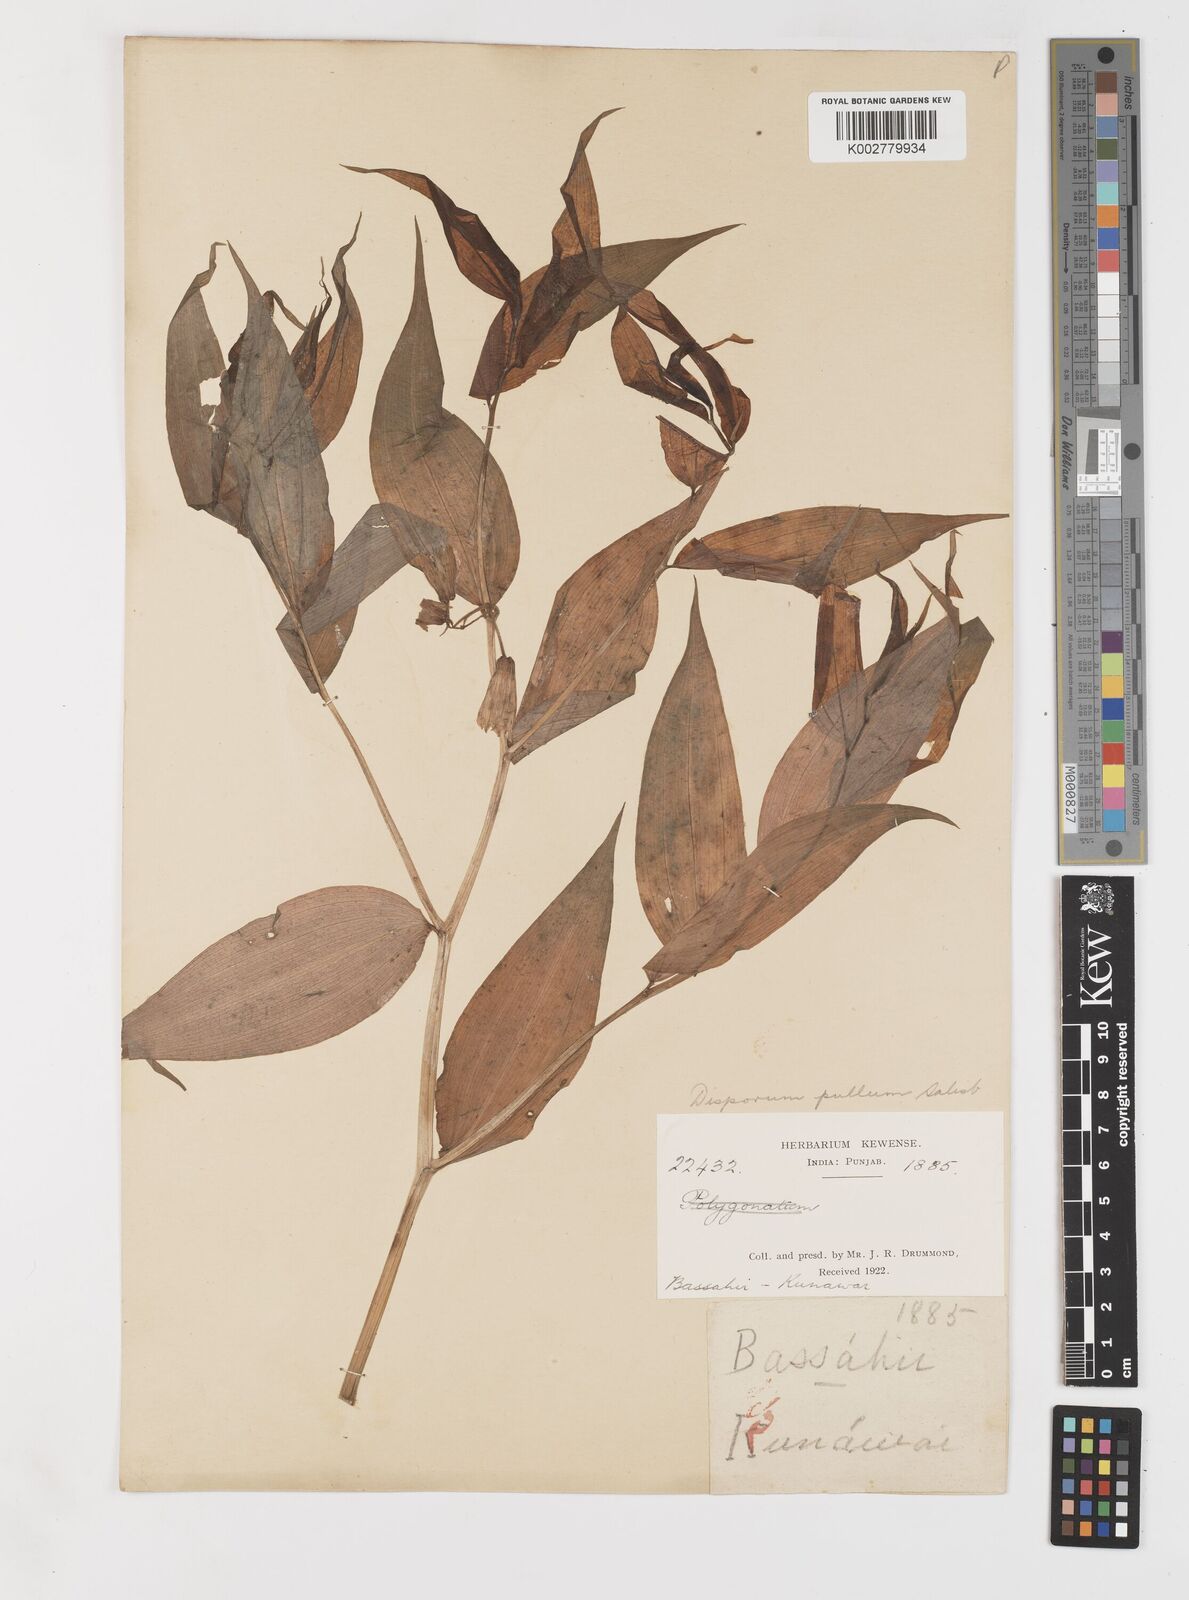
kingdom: Plantae
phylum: Tracheophyta
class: Liliopsida
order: Liliales
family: Colchicaceae
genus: Disporum
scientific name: Disporum cantoniense
